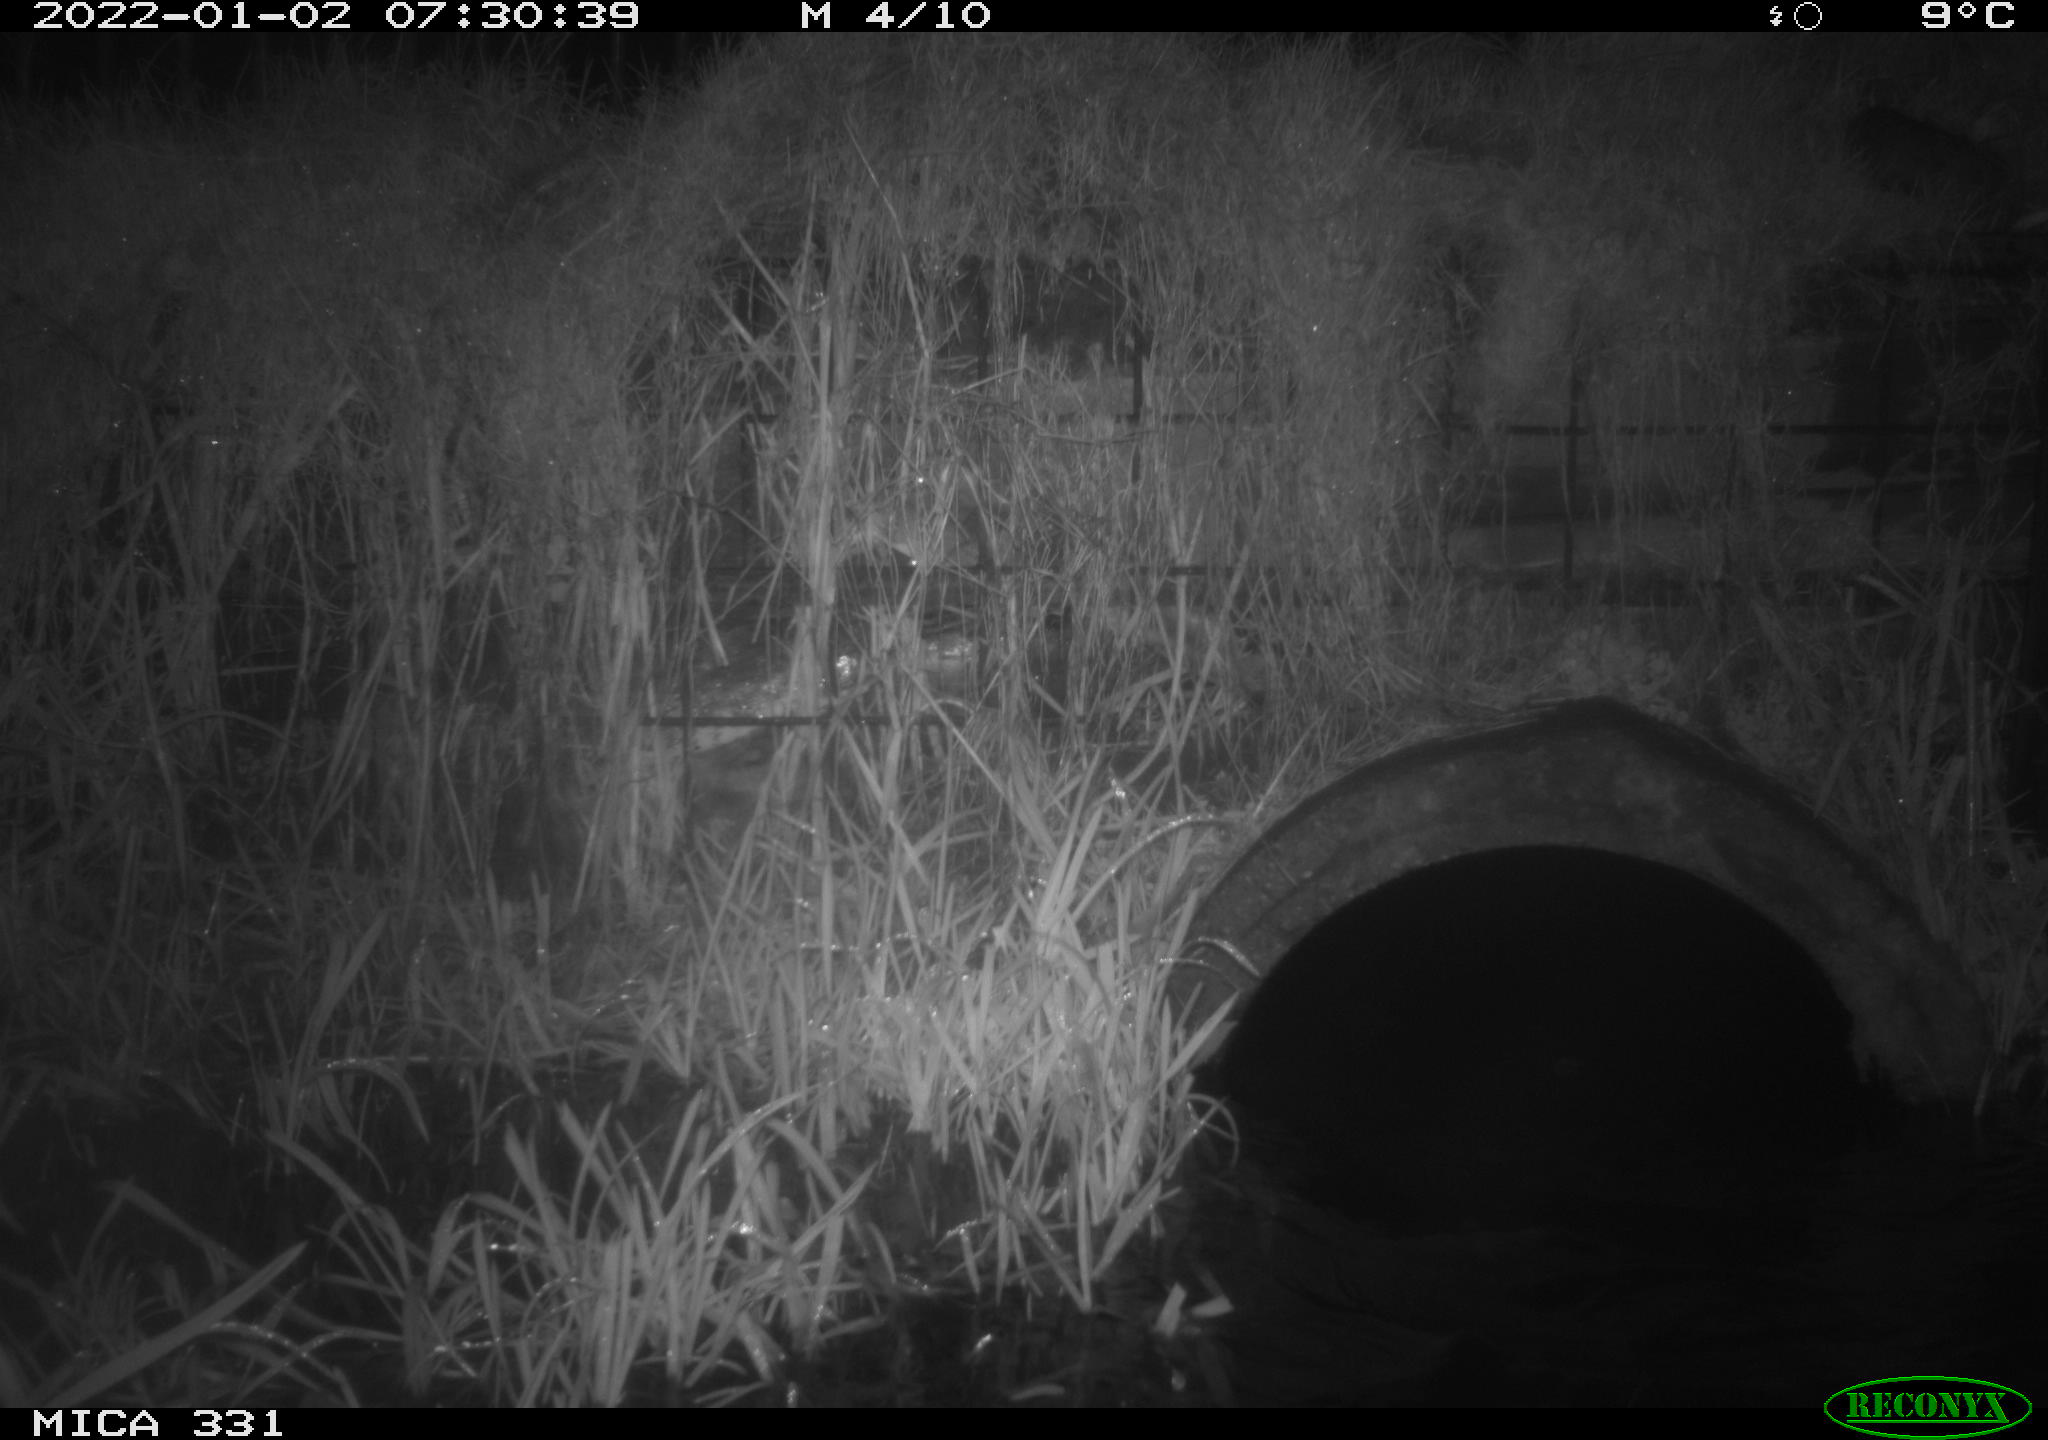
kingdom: Animalia
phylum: Chordata
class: Mammalia
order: Rodentia
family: Muridae
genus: Rattus
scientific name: Rattus norvegicus
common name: Brown rat
